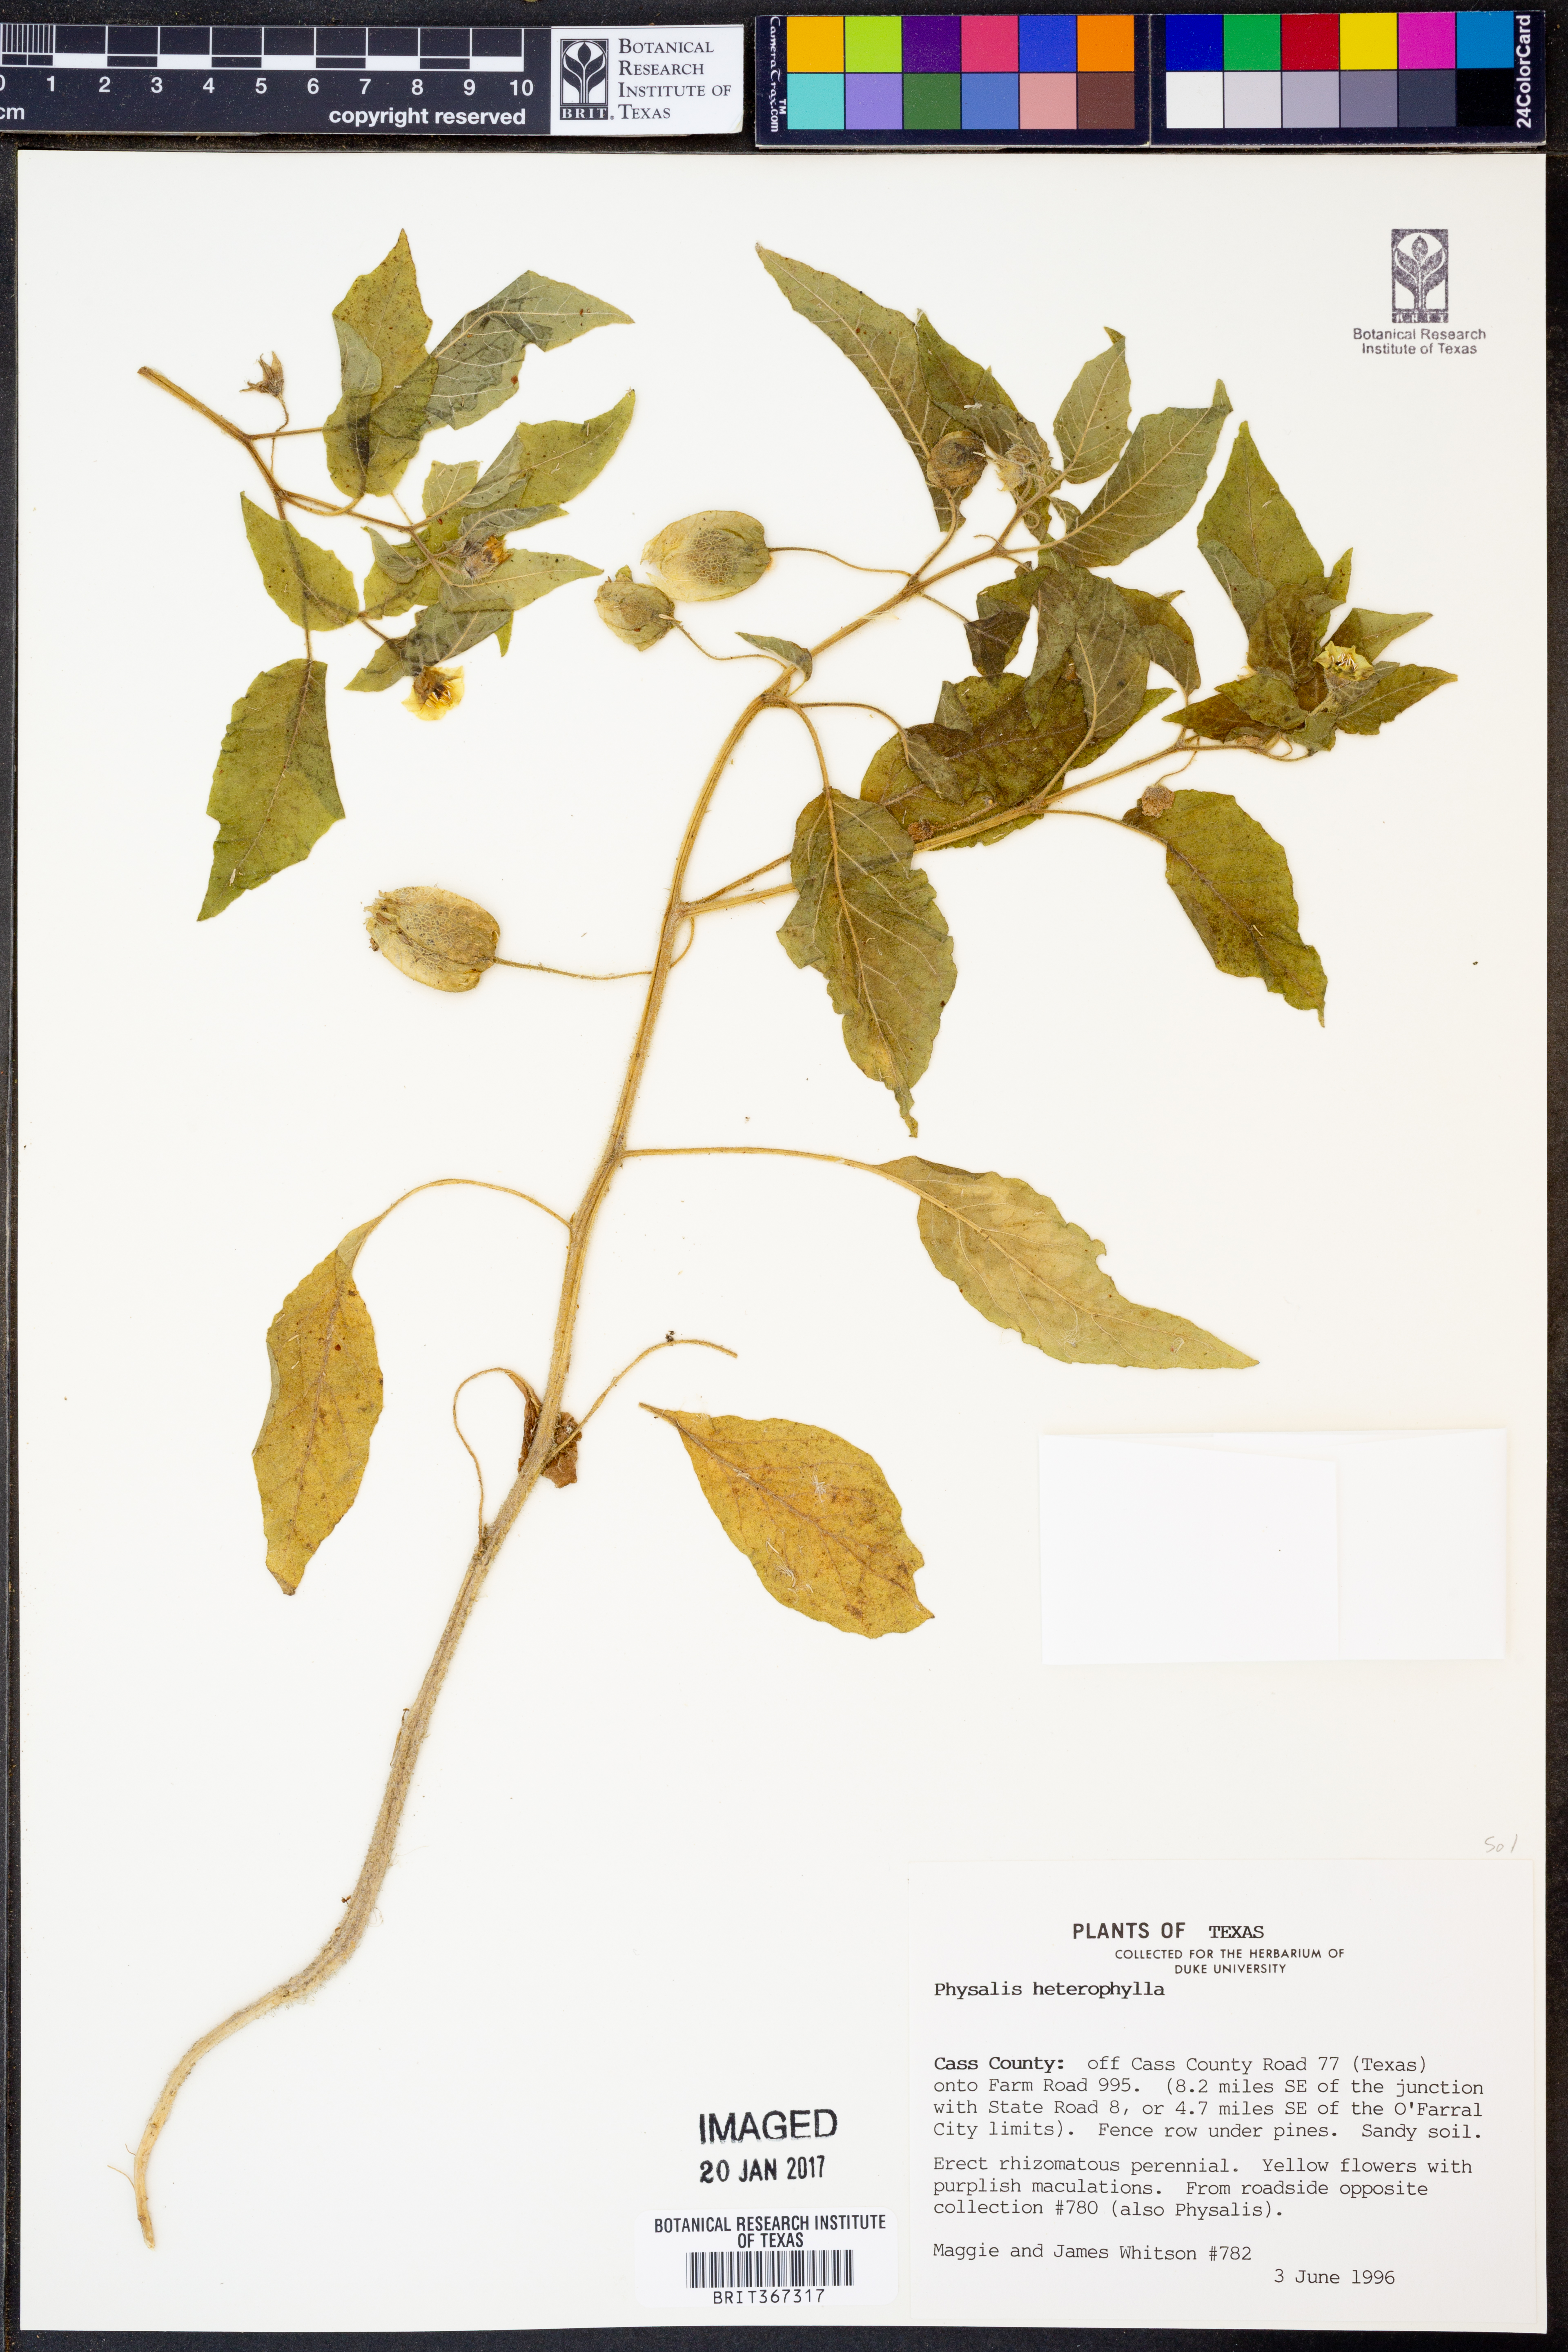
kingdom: Plantae
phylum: Tracheophyta
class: Magnoliopsida
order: Solanales
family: Solanaceae
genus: Physalis
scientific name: Physalis heterophylla
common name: Clammy ground-cherry
